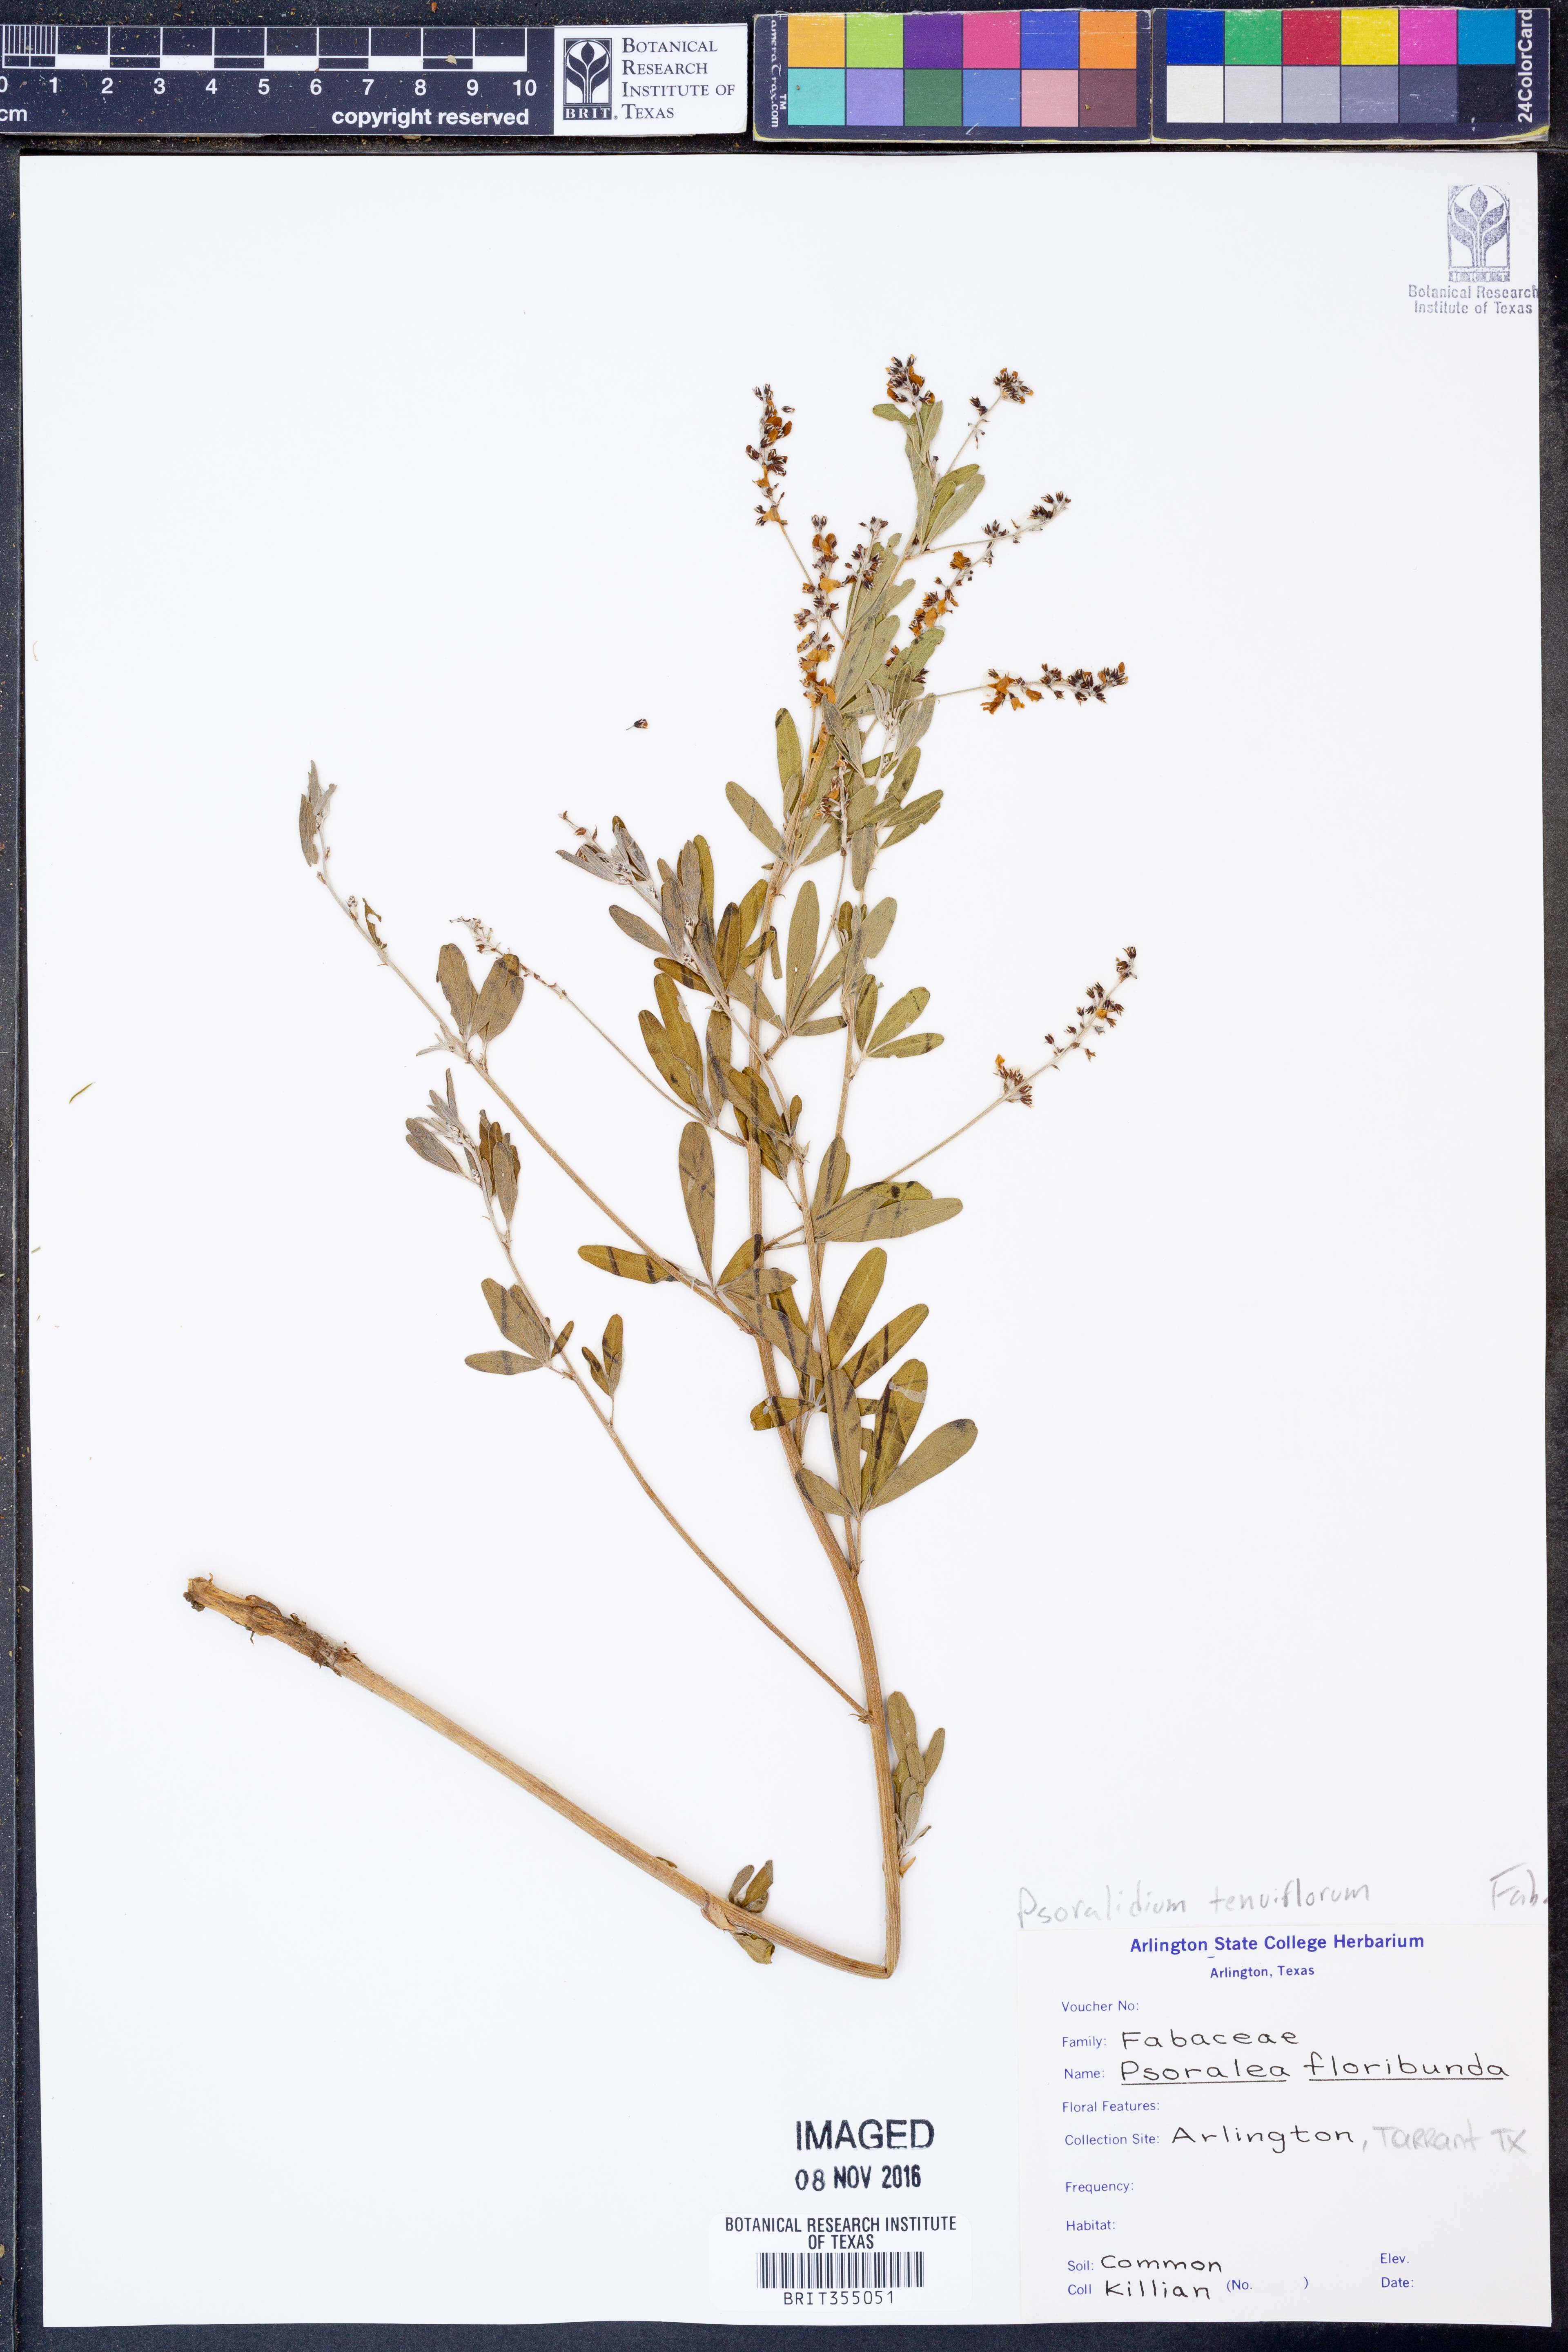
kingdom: Plantae
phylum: Tracheophyta
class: Magnoliopsida
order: Fabales
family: Fabaceae
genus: Pediomelum
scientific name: Pediomelum tenuiflorum
